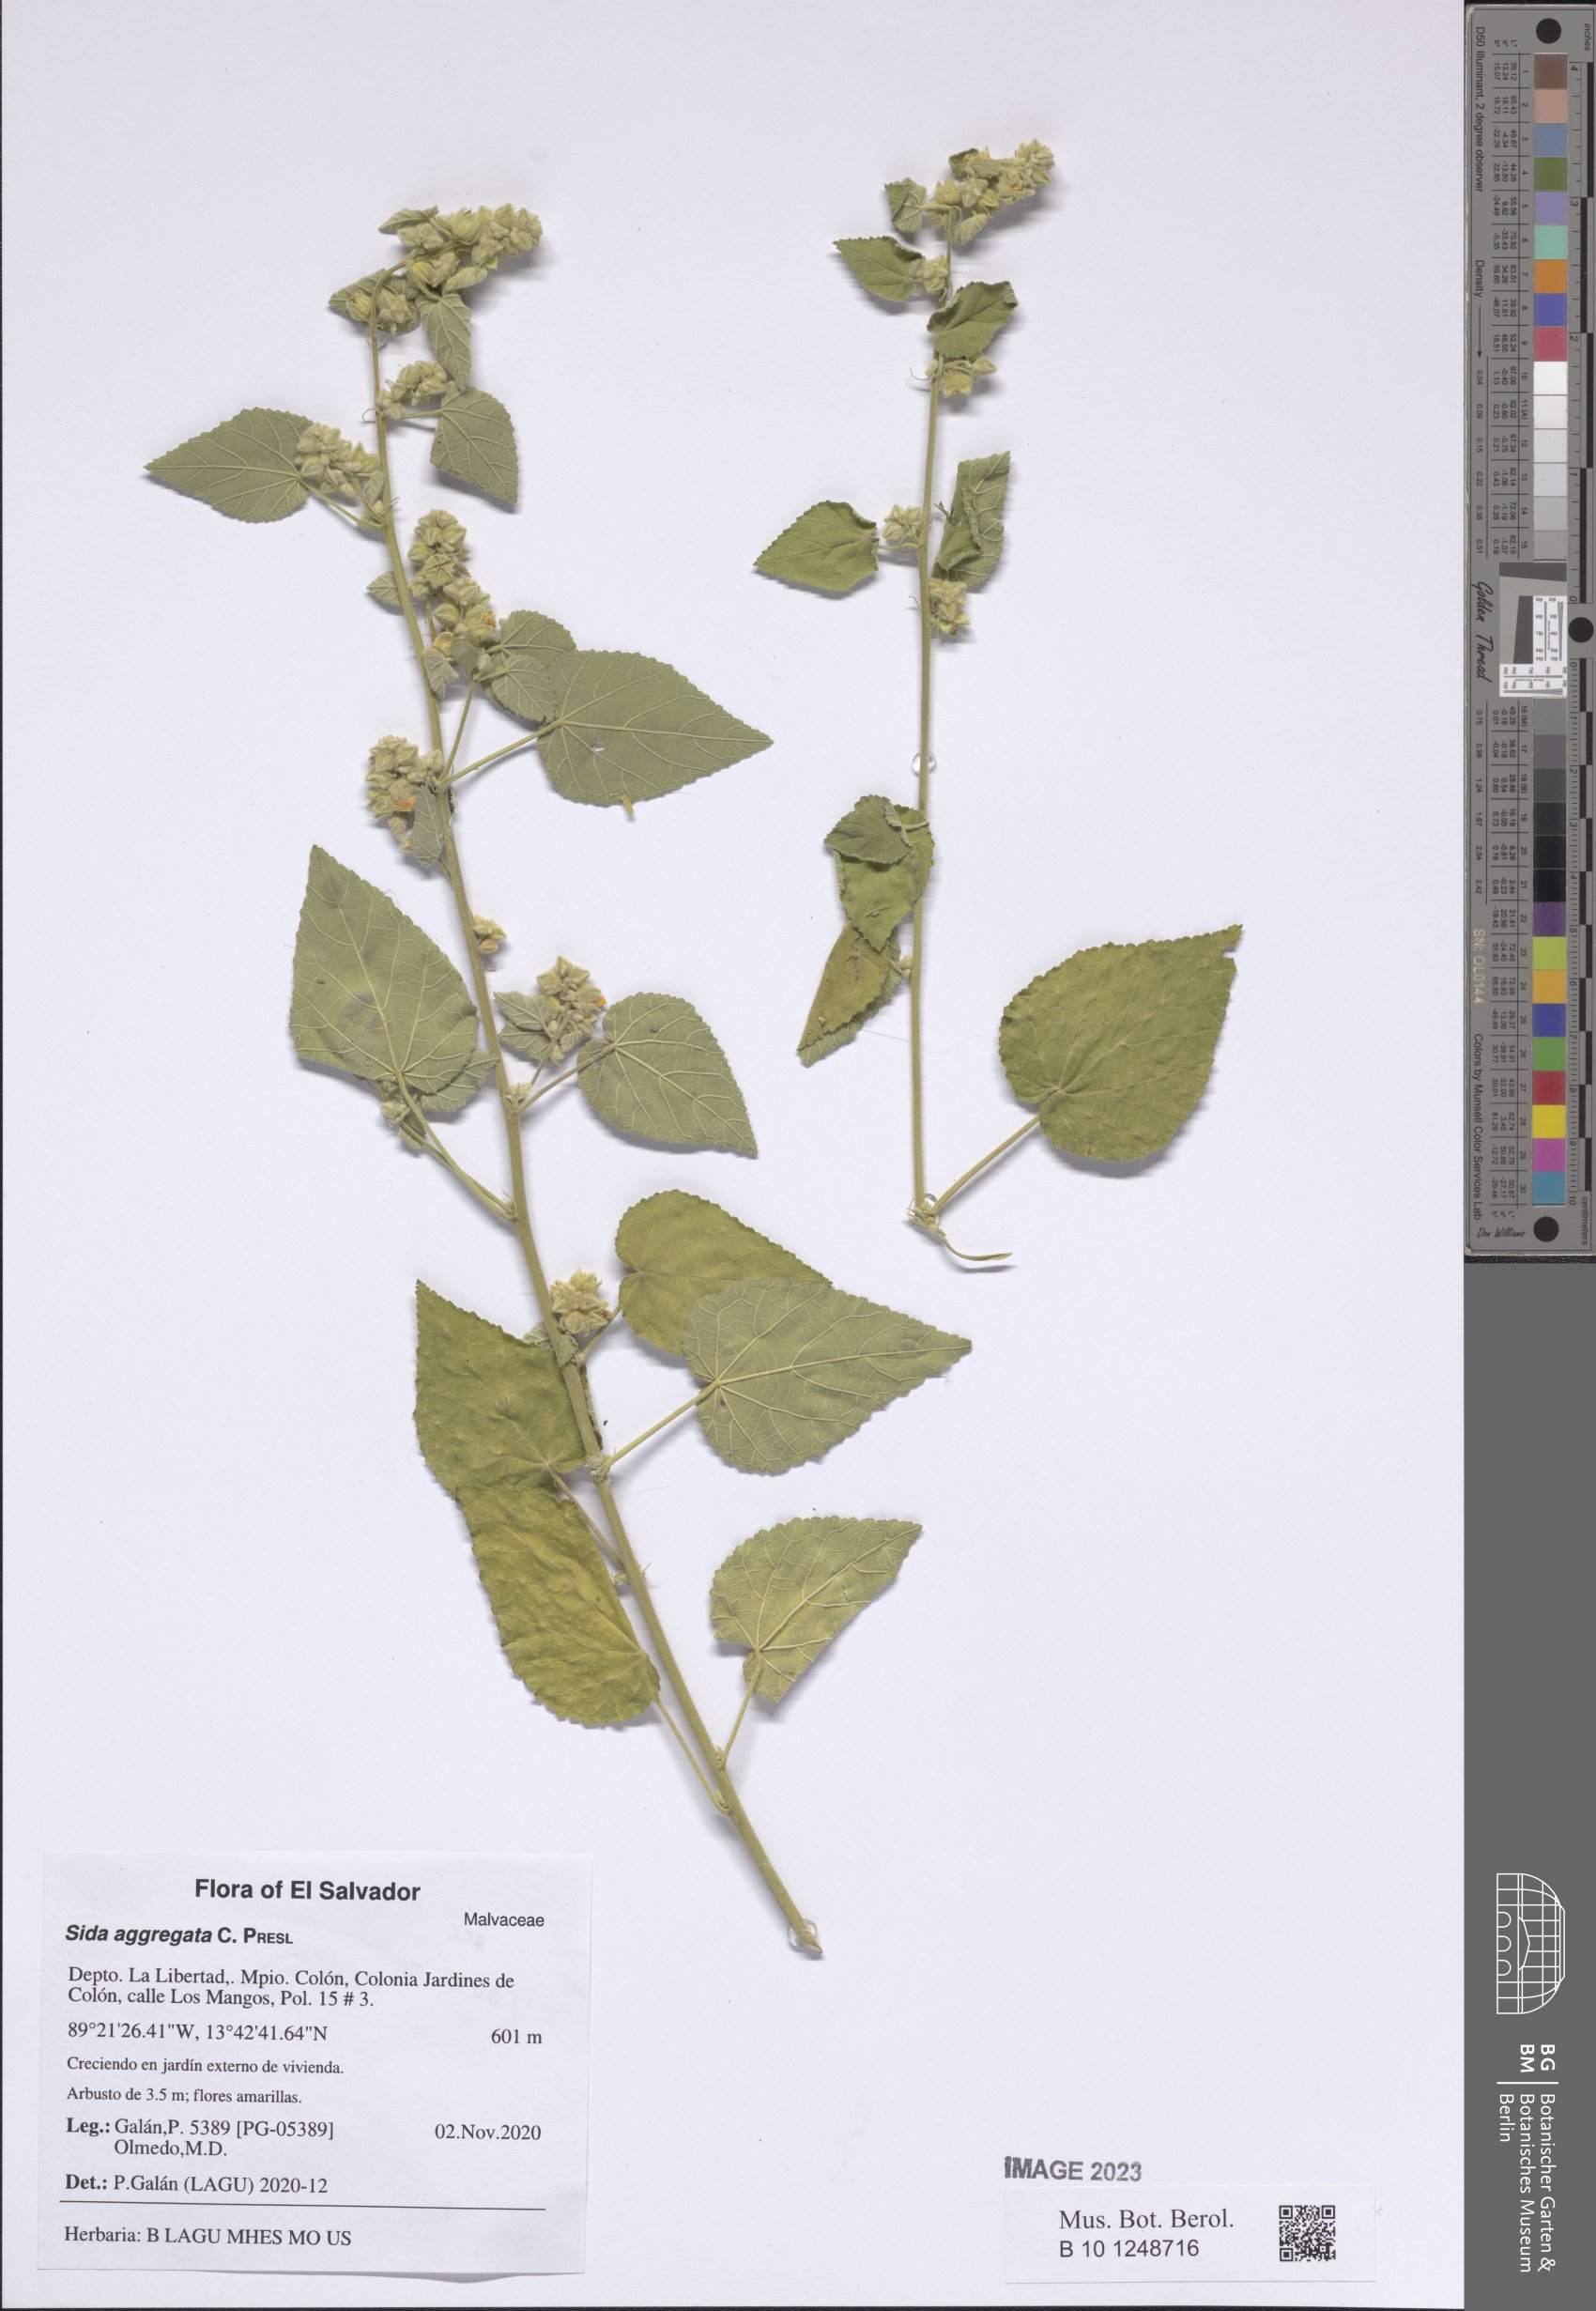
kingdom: Plantae
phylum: Tracheophyta
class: Magnoliopsida
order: Malvales
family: Malvaceae
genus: Sida
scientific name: Sida aggregata
